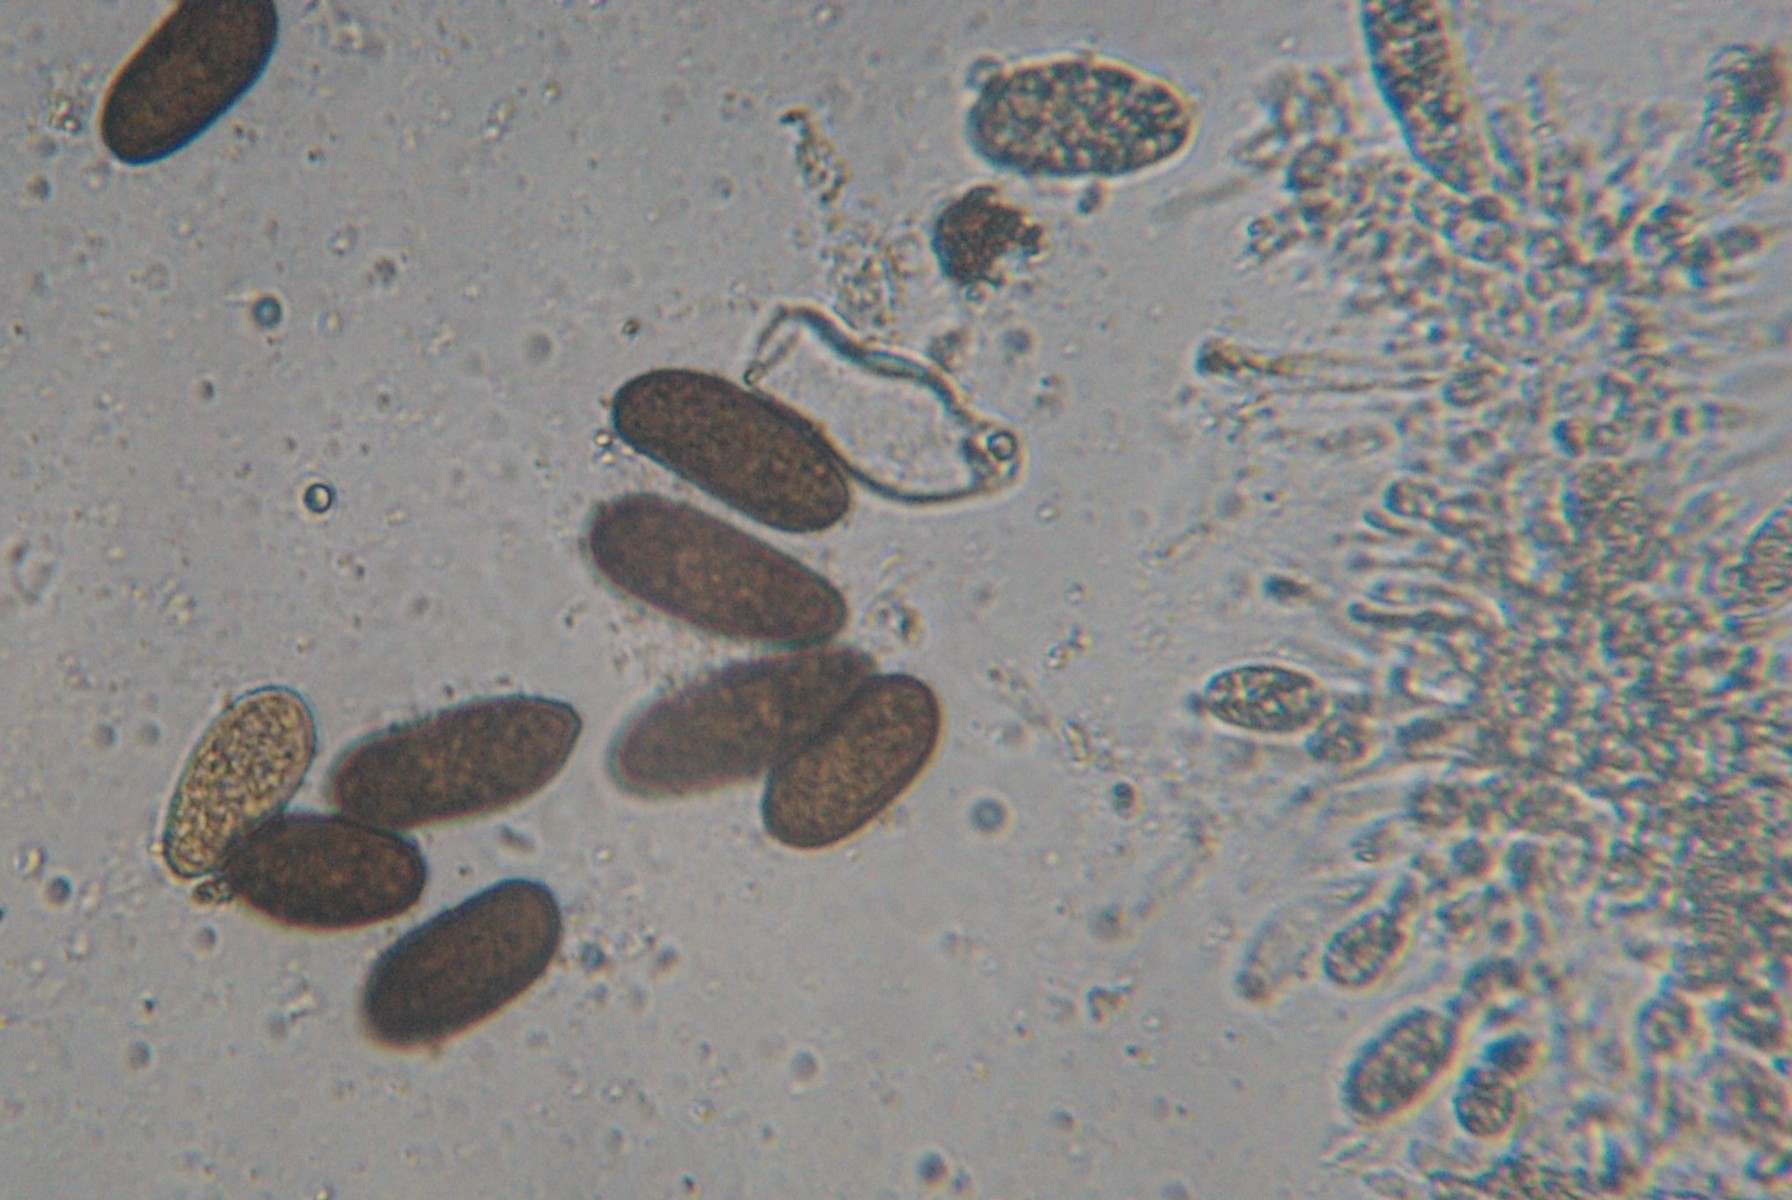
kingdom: Fungi
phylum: Ascomycota
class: Dothideomycetes
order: Botryosphaeriales
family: Botryosphaeriaceae
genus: Sphaeropsis
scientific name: Sphaeropsis sapinea
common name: Sphaeropsis blight
